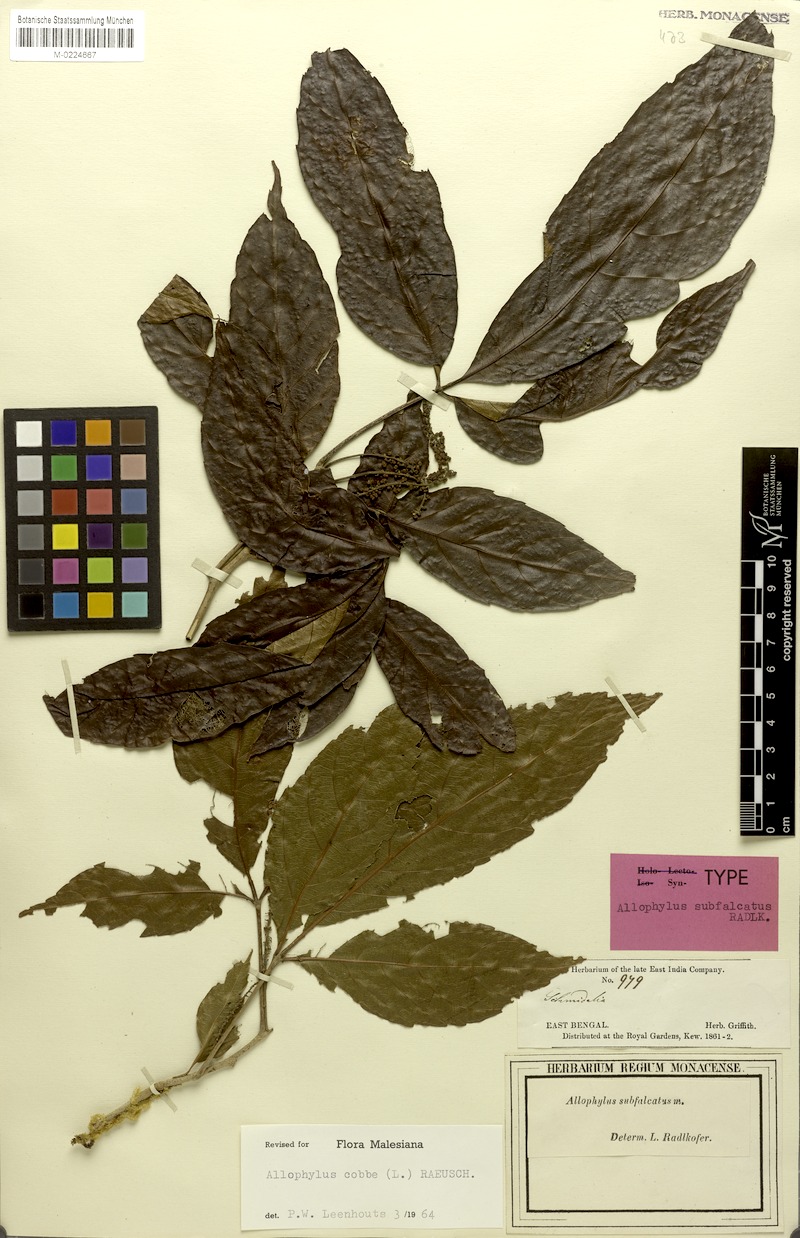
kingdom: Plantae
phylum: Tracheophyta
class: Magnoliopsida
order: Sapindales
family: Sapindaceae
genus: Allophylus
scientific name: Allophylus subfalcatus
